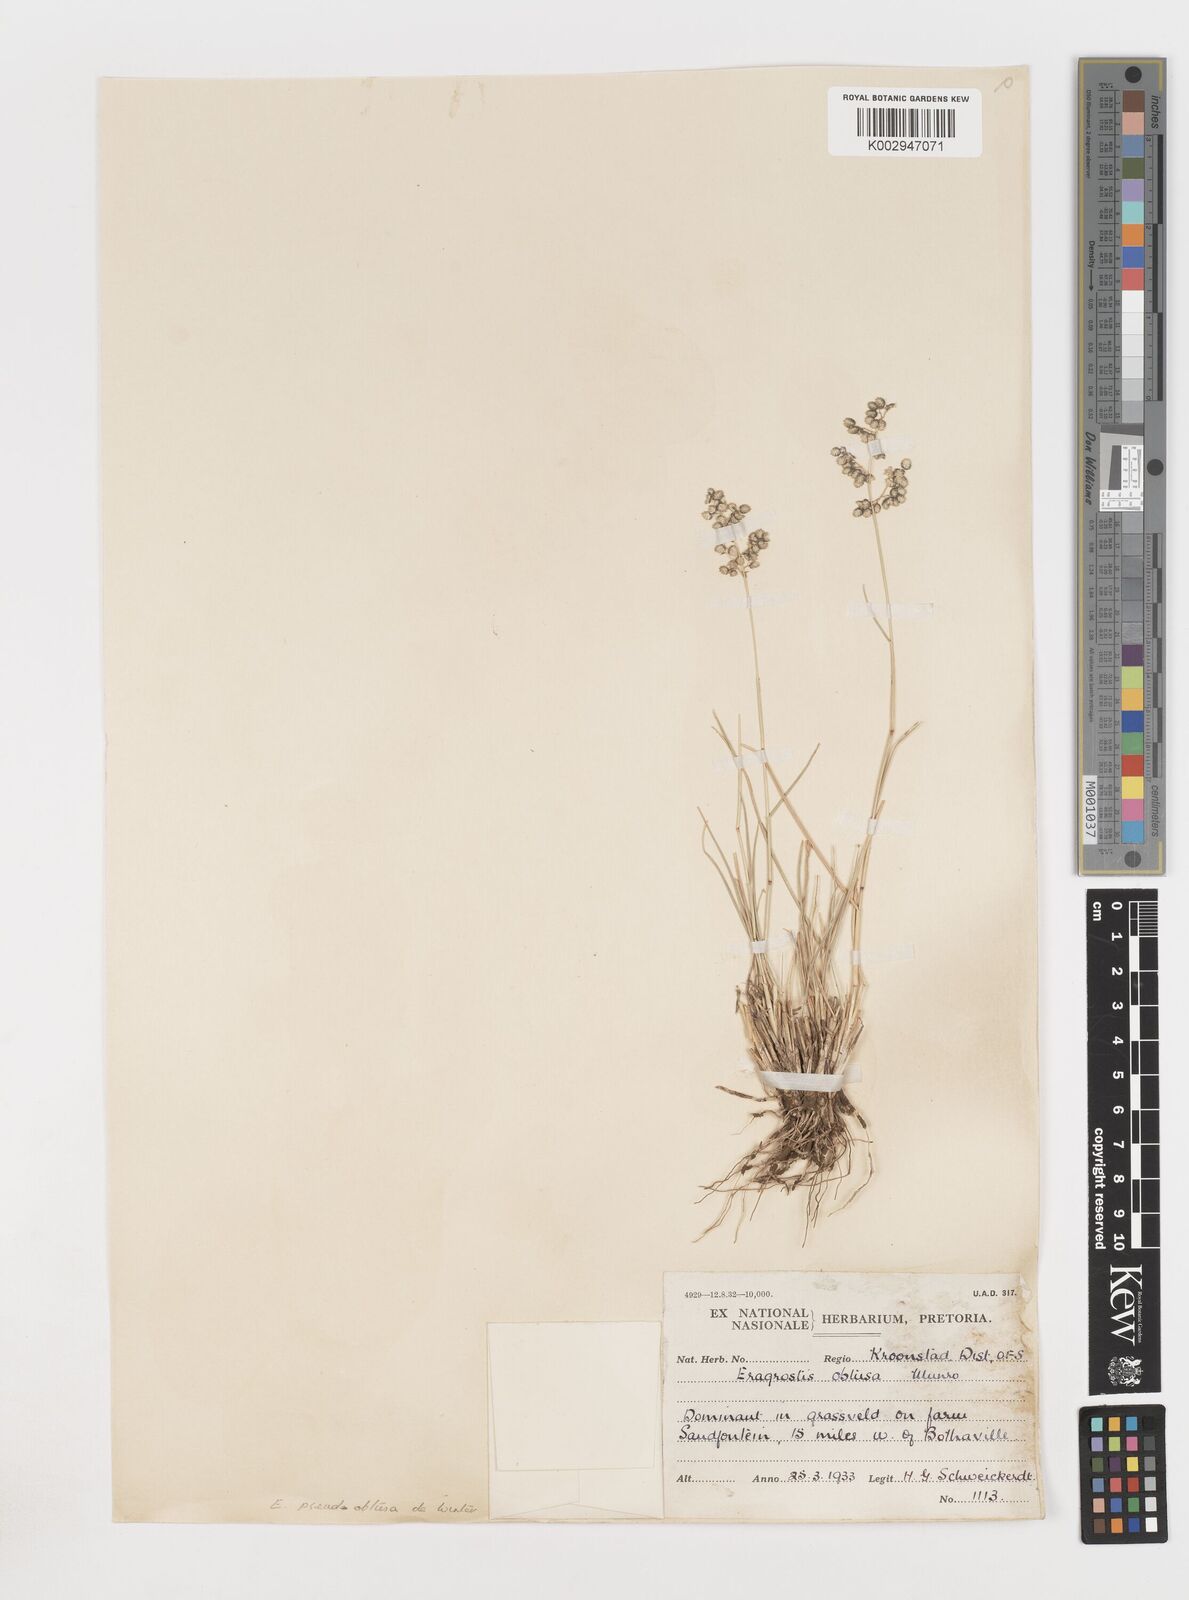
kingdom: Plantae
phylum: Tracheophyta
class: Liliopsida
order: Poales
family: Poaceae
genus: Eragrostis
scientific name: Eragrostis pseudobtusa
